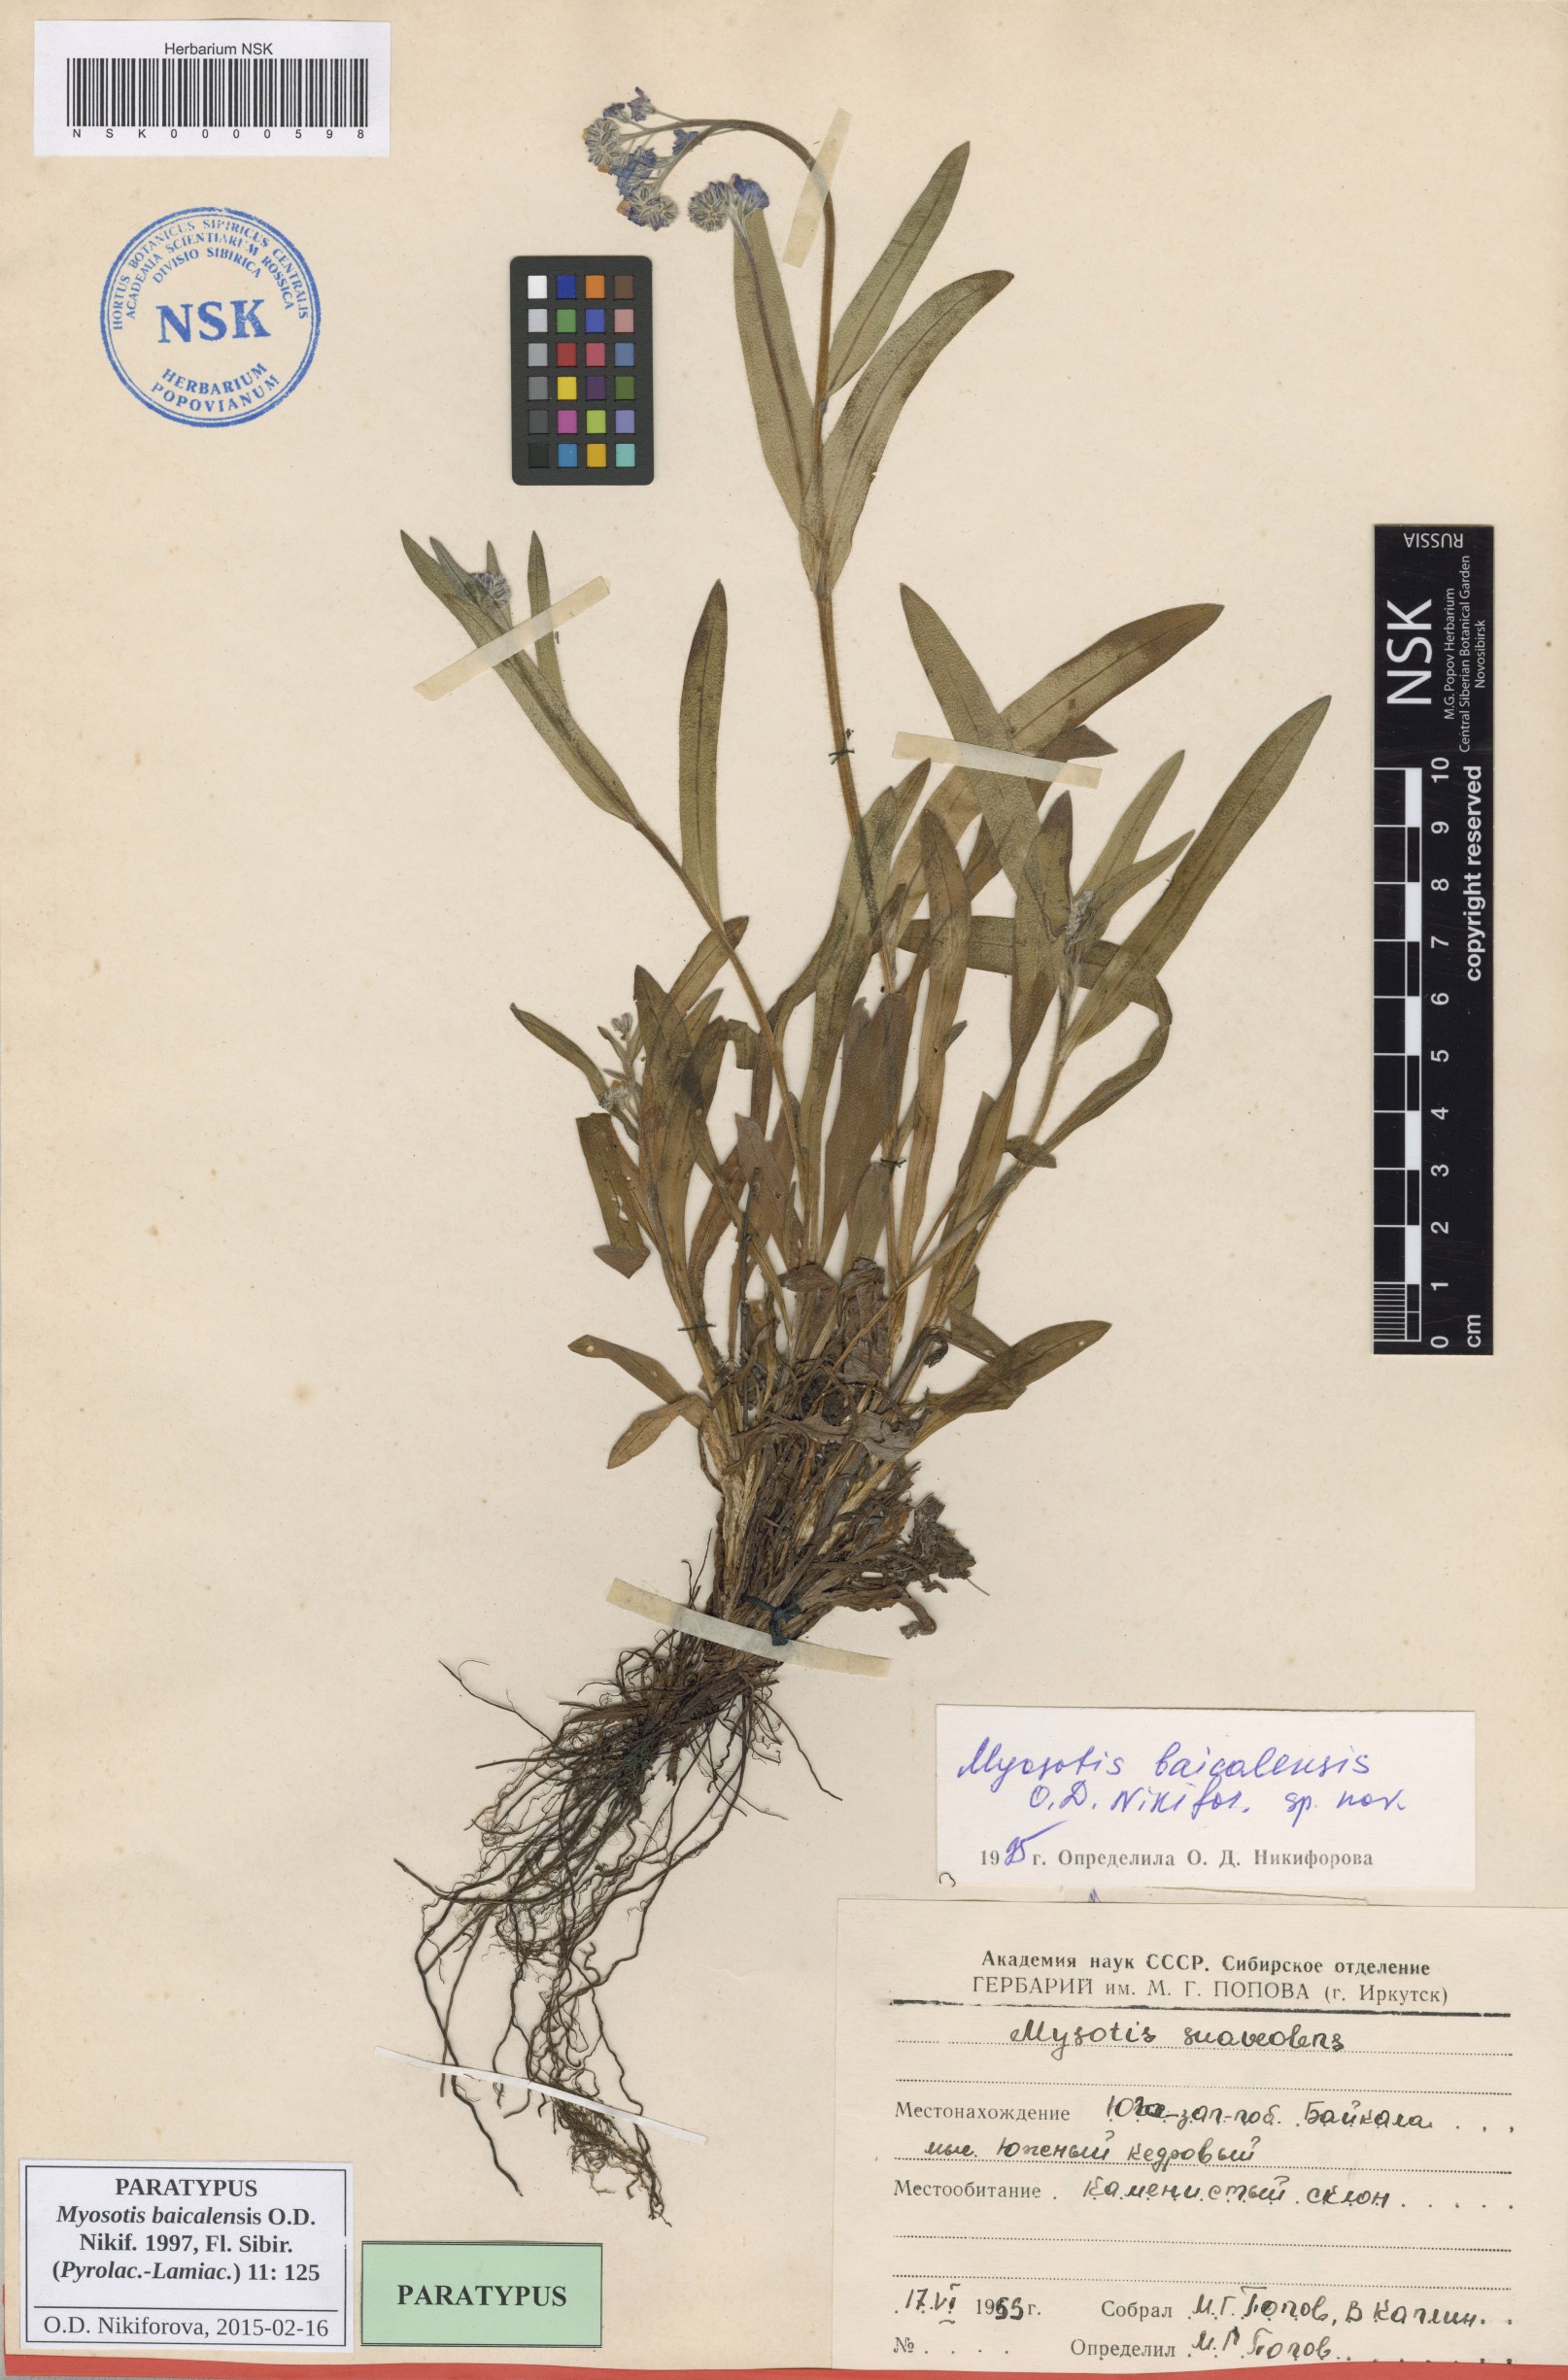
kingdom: Plantae
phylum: Tracheophyta
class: Magnoliopsida
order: Boraginales
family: Boraginaceae
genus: Myosotis
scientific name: Myosotis baicalensis
